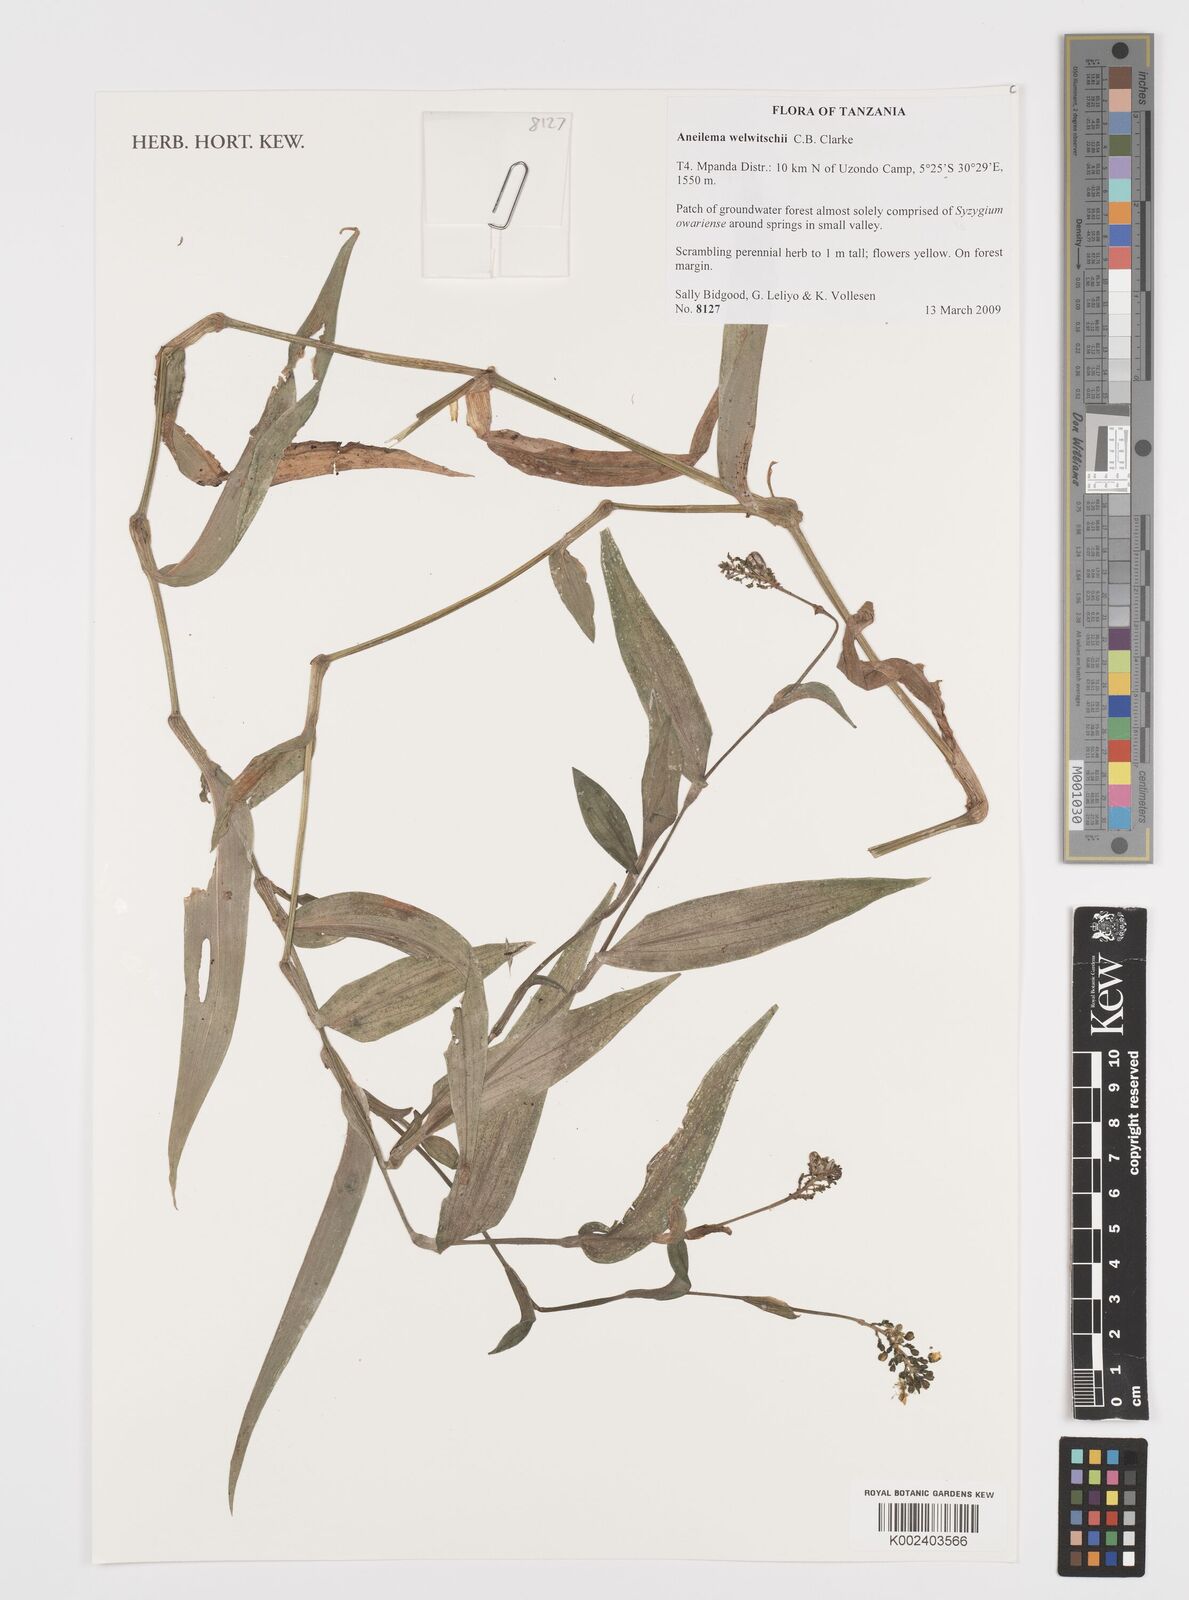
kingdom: Plantae
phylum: Tracheophyta
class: Liliopsida
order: Commelinales
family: Commelinaceae
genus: Aneilema
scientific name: Aneilema welwitschii
